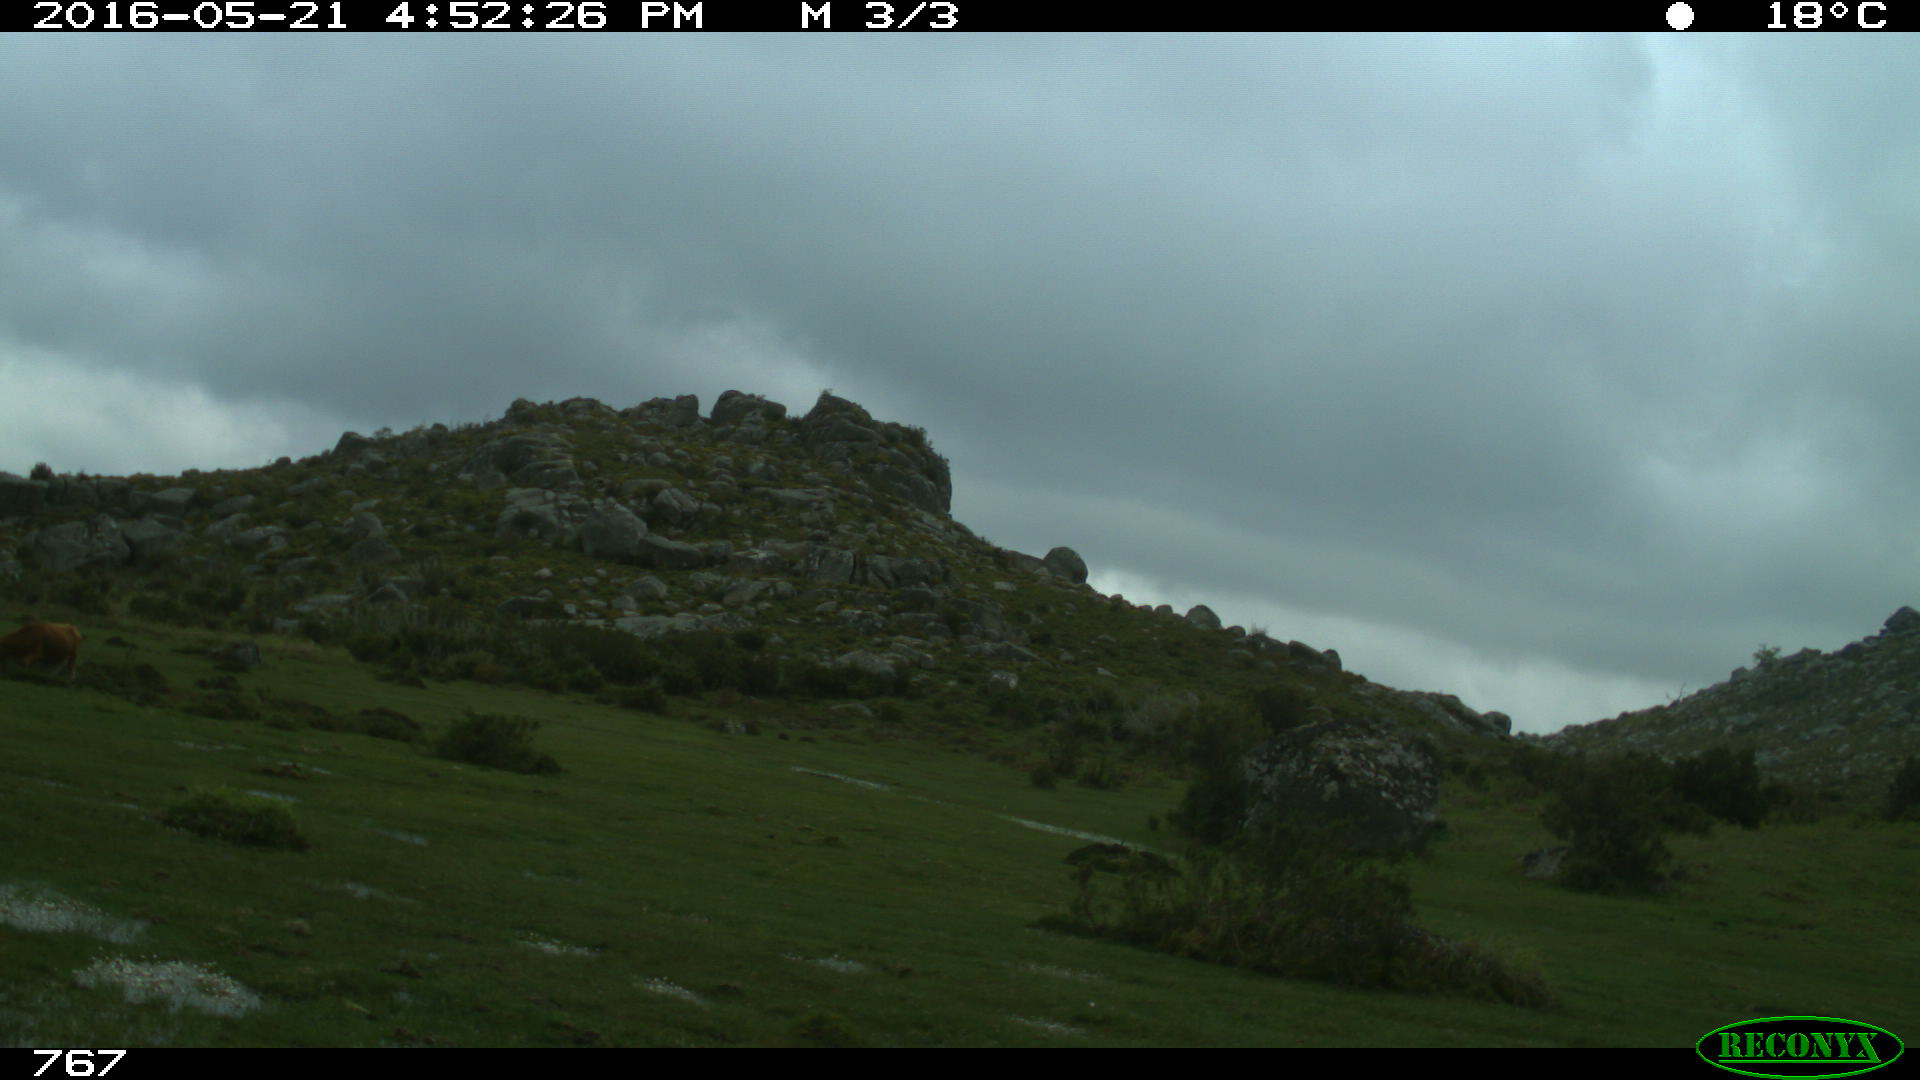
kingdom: Animalia
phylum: Chordata
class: Mammalia
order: Artiodactyla
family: Bovidae
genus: Bos
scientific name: Bos taurus
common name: Domesticated cattle
